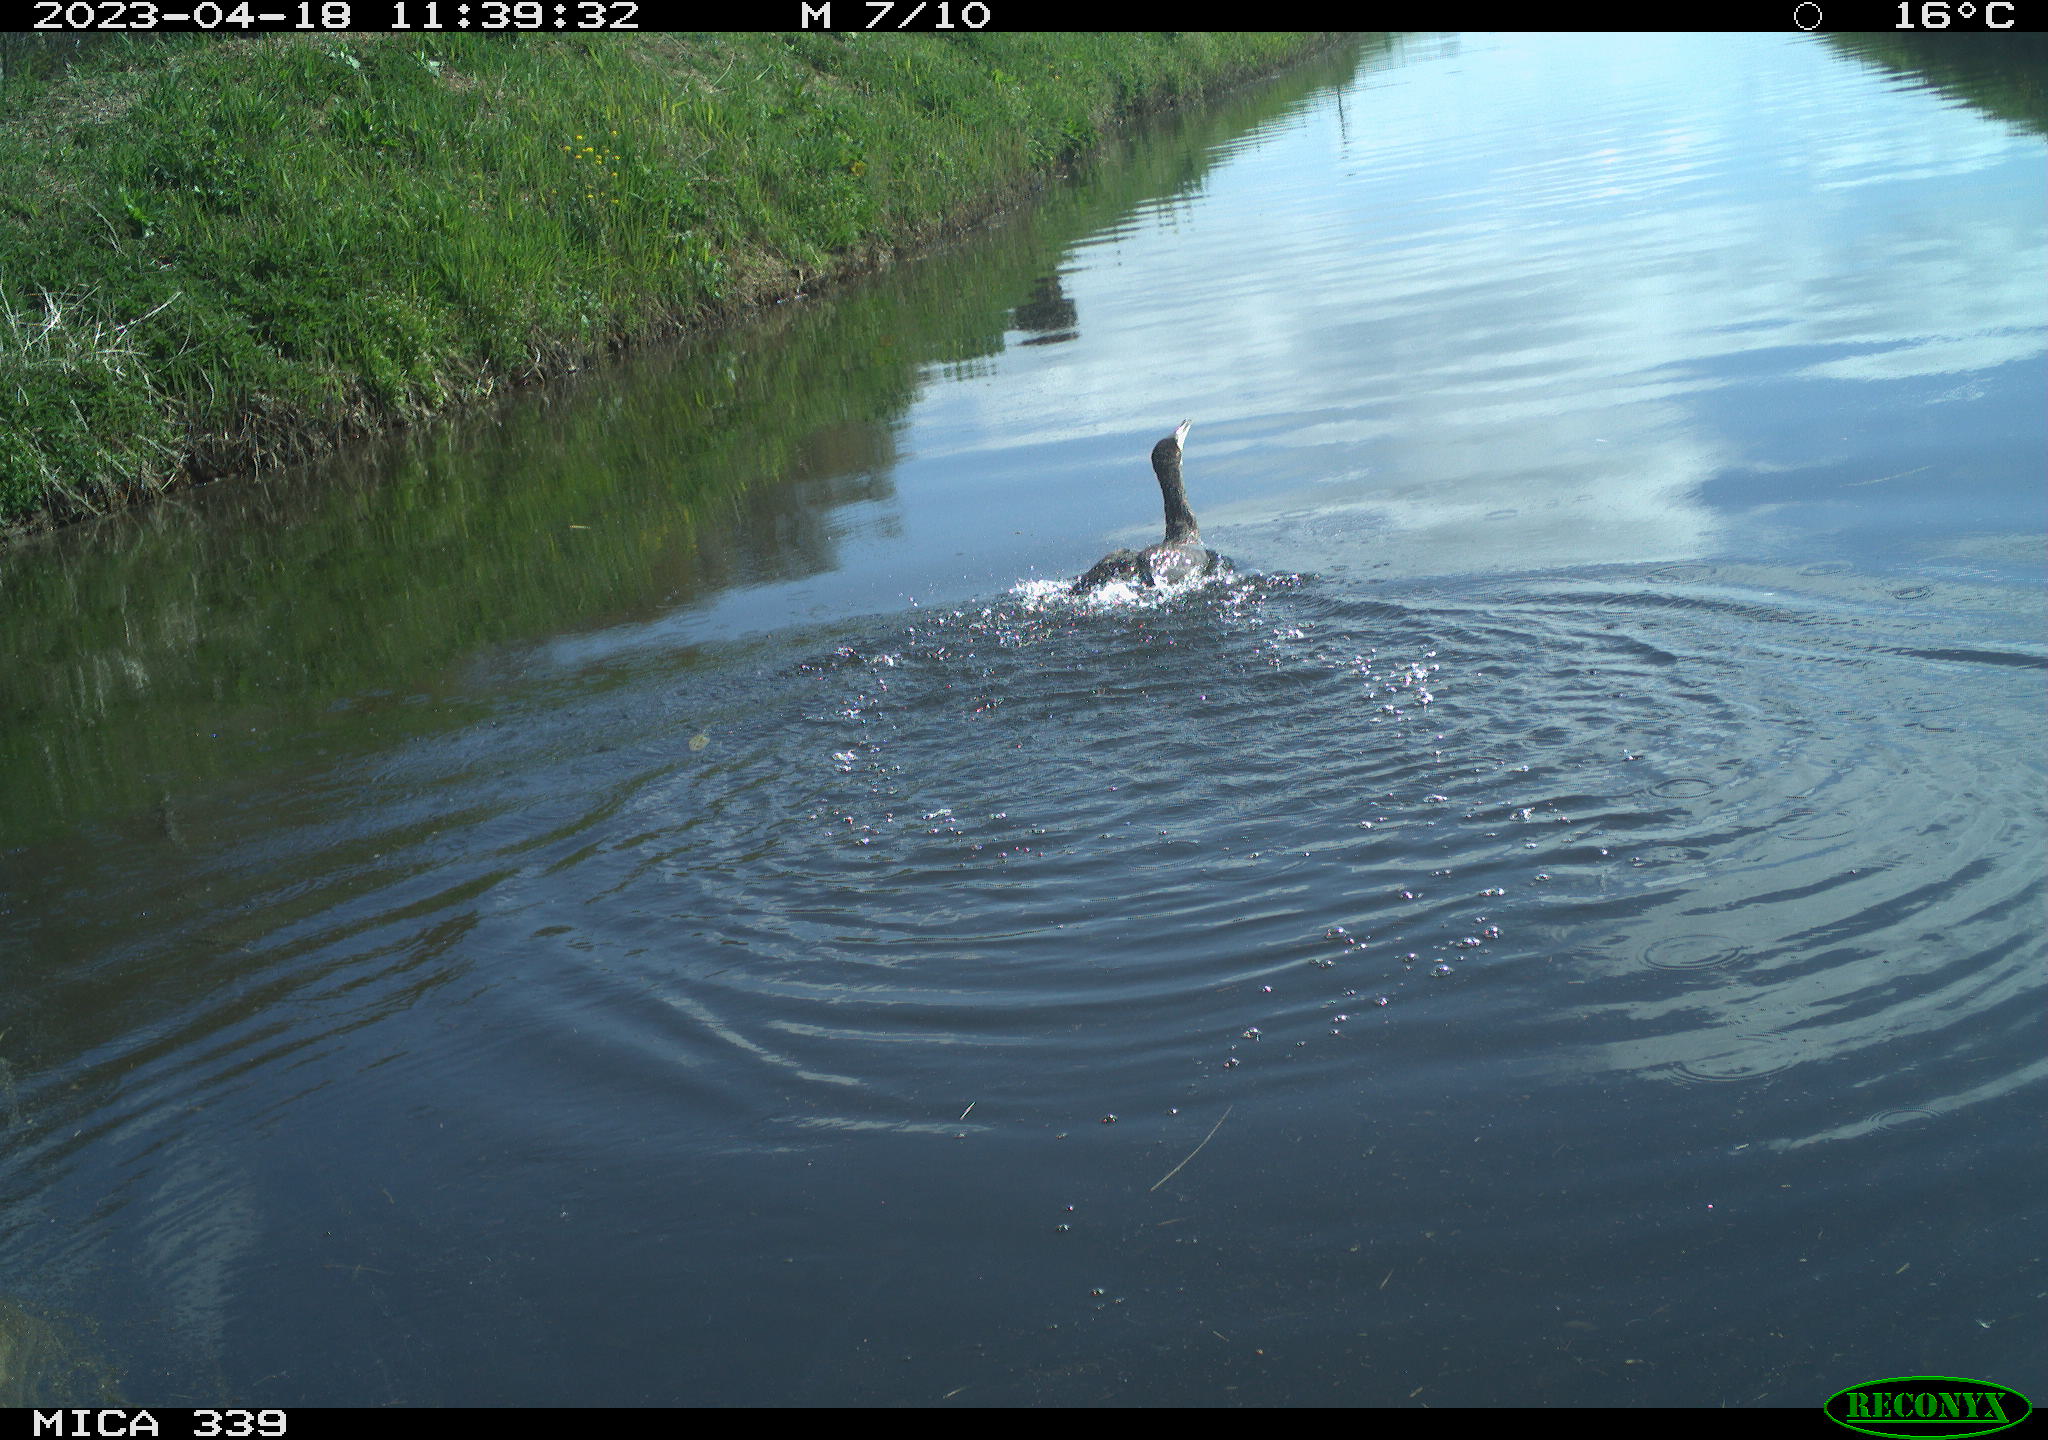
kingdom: Animalia
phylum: Chordata
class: Aves
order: Anseriformes
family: Anatidae
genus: Anas
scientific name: Anas
